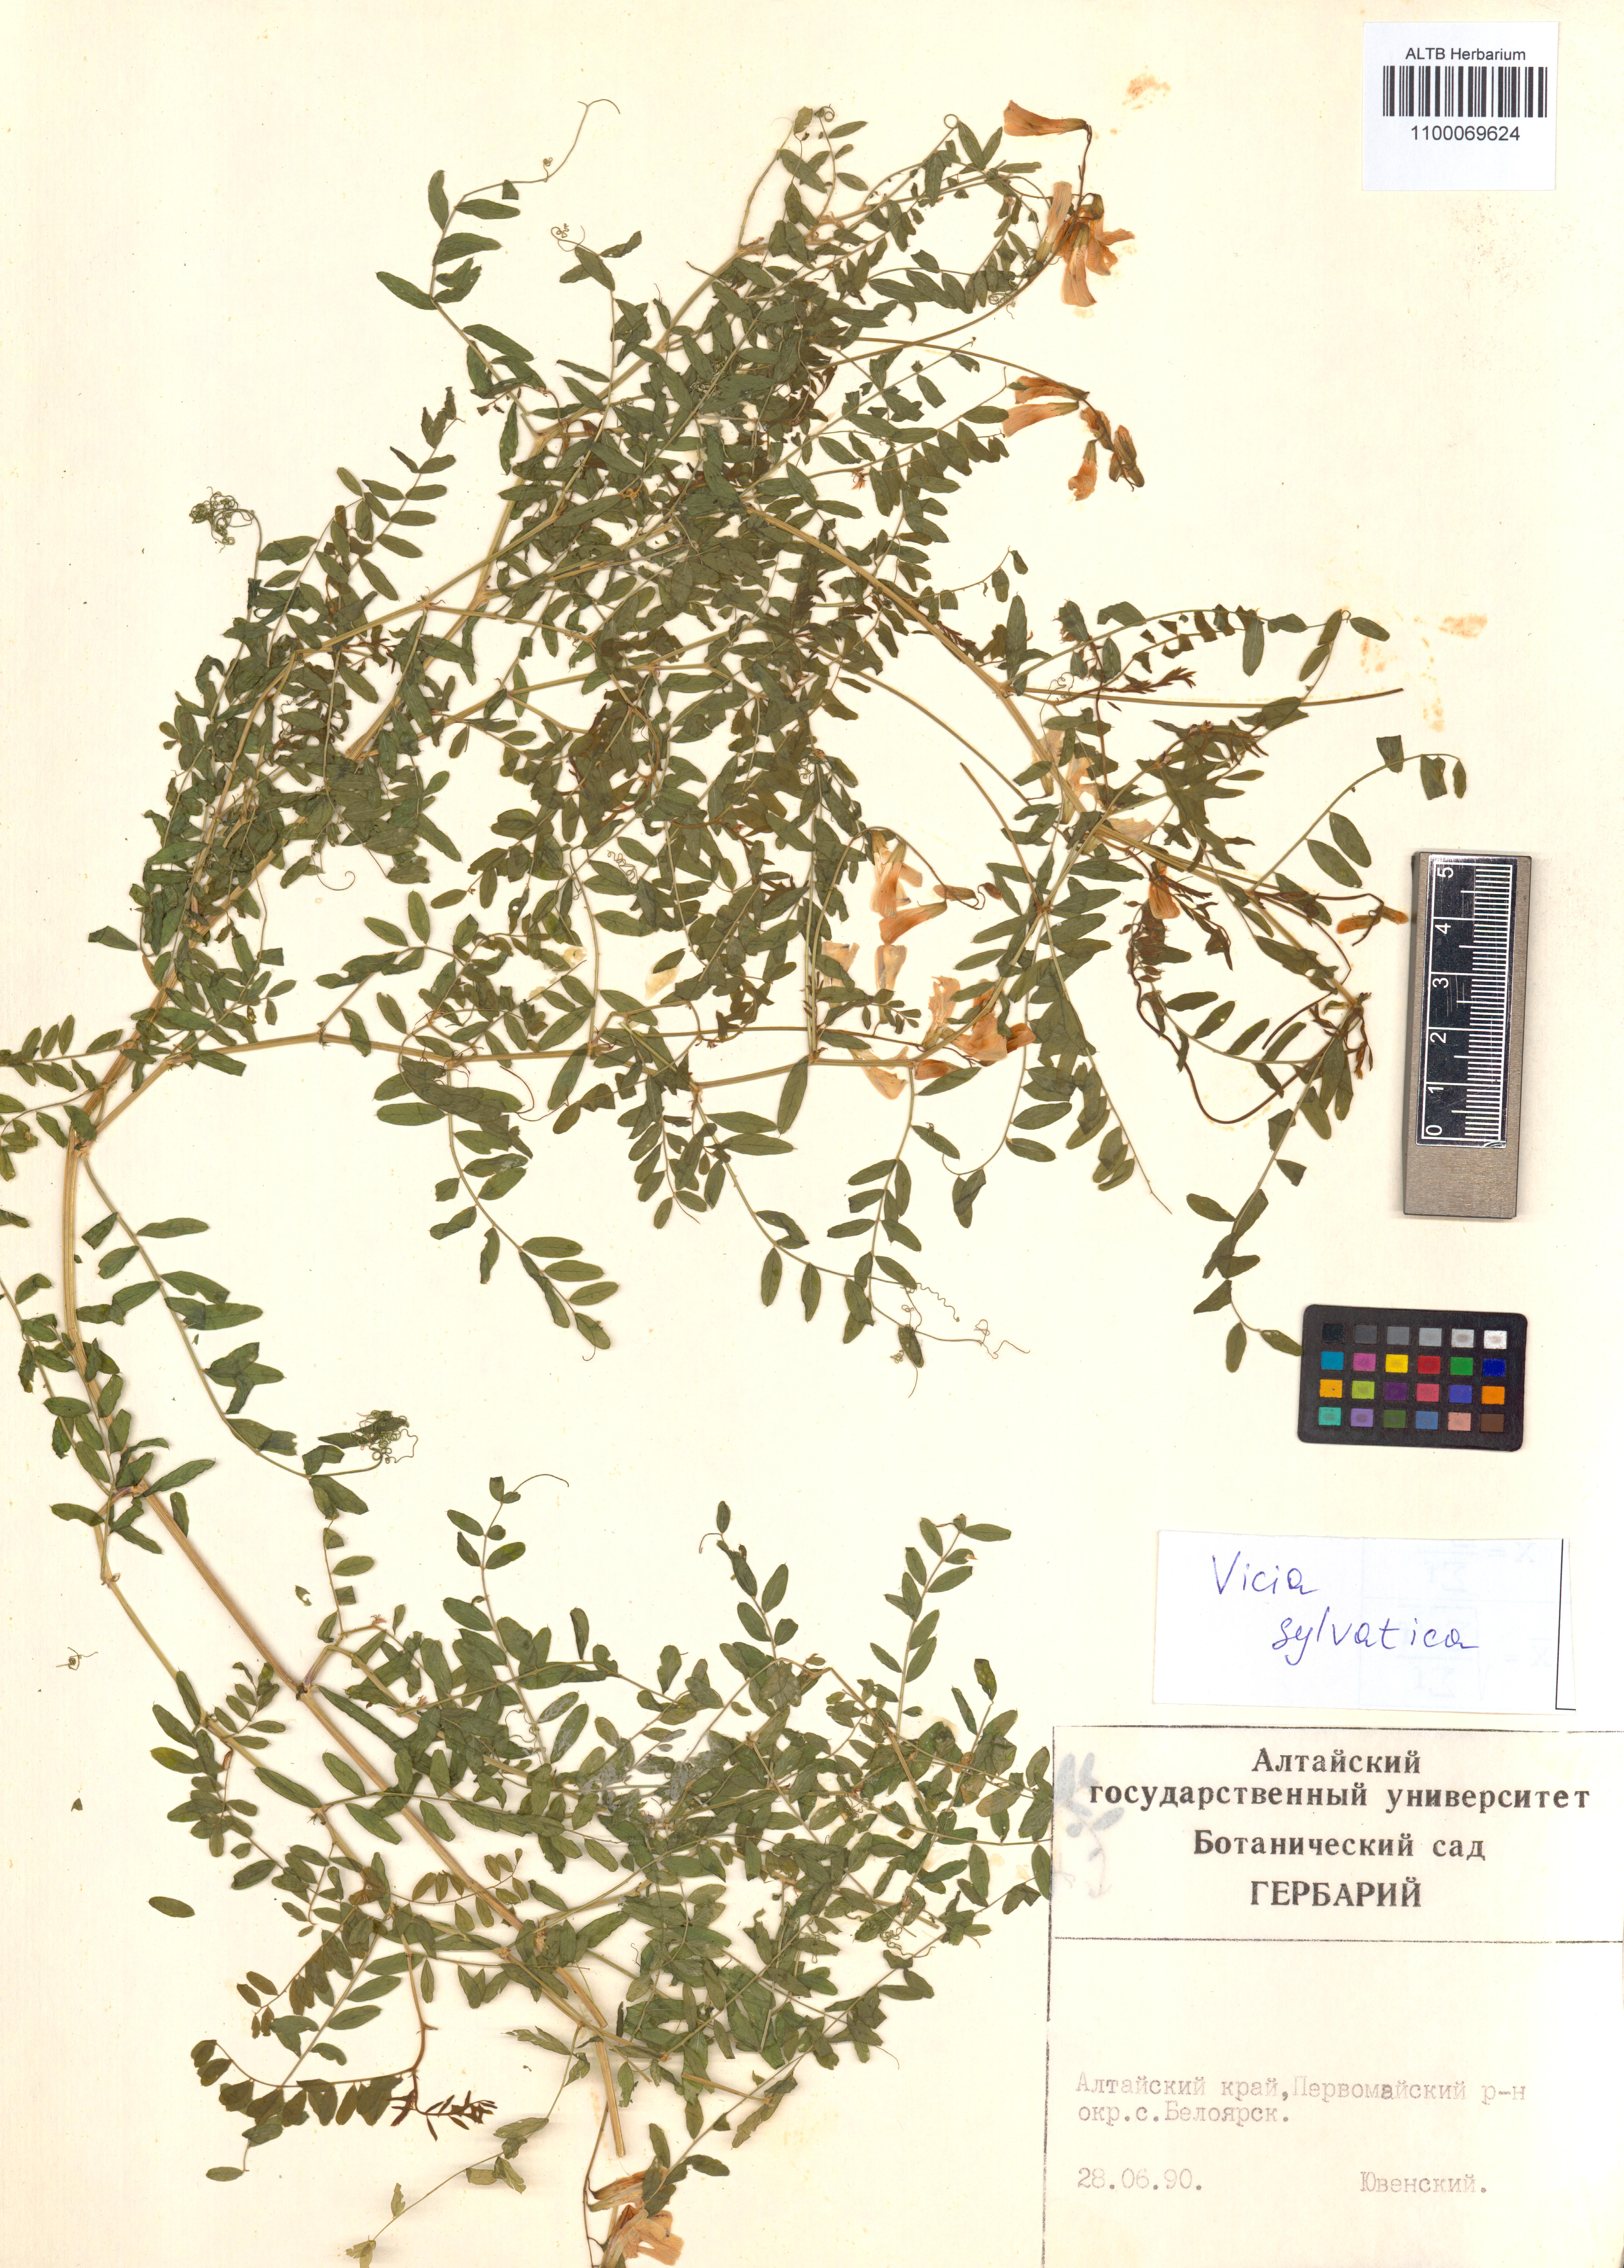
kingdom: Plantae
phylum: Tracheophyta
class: Magnoliopsida
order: Fabales
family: Fabaceae
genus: Vicia
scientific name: Vicia bakeri
